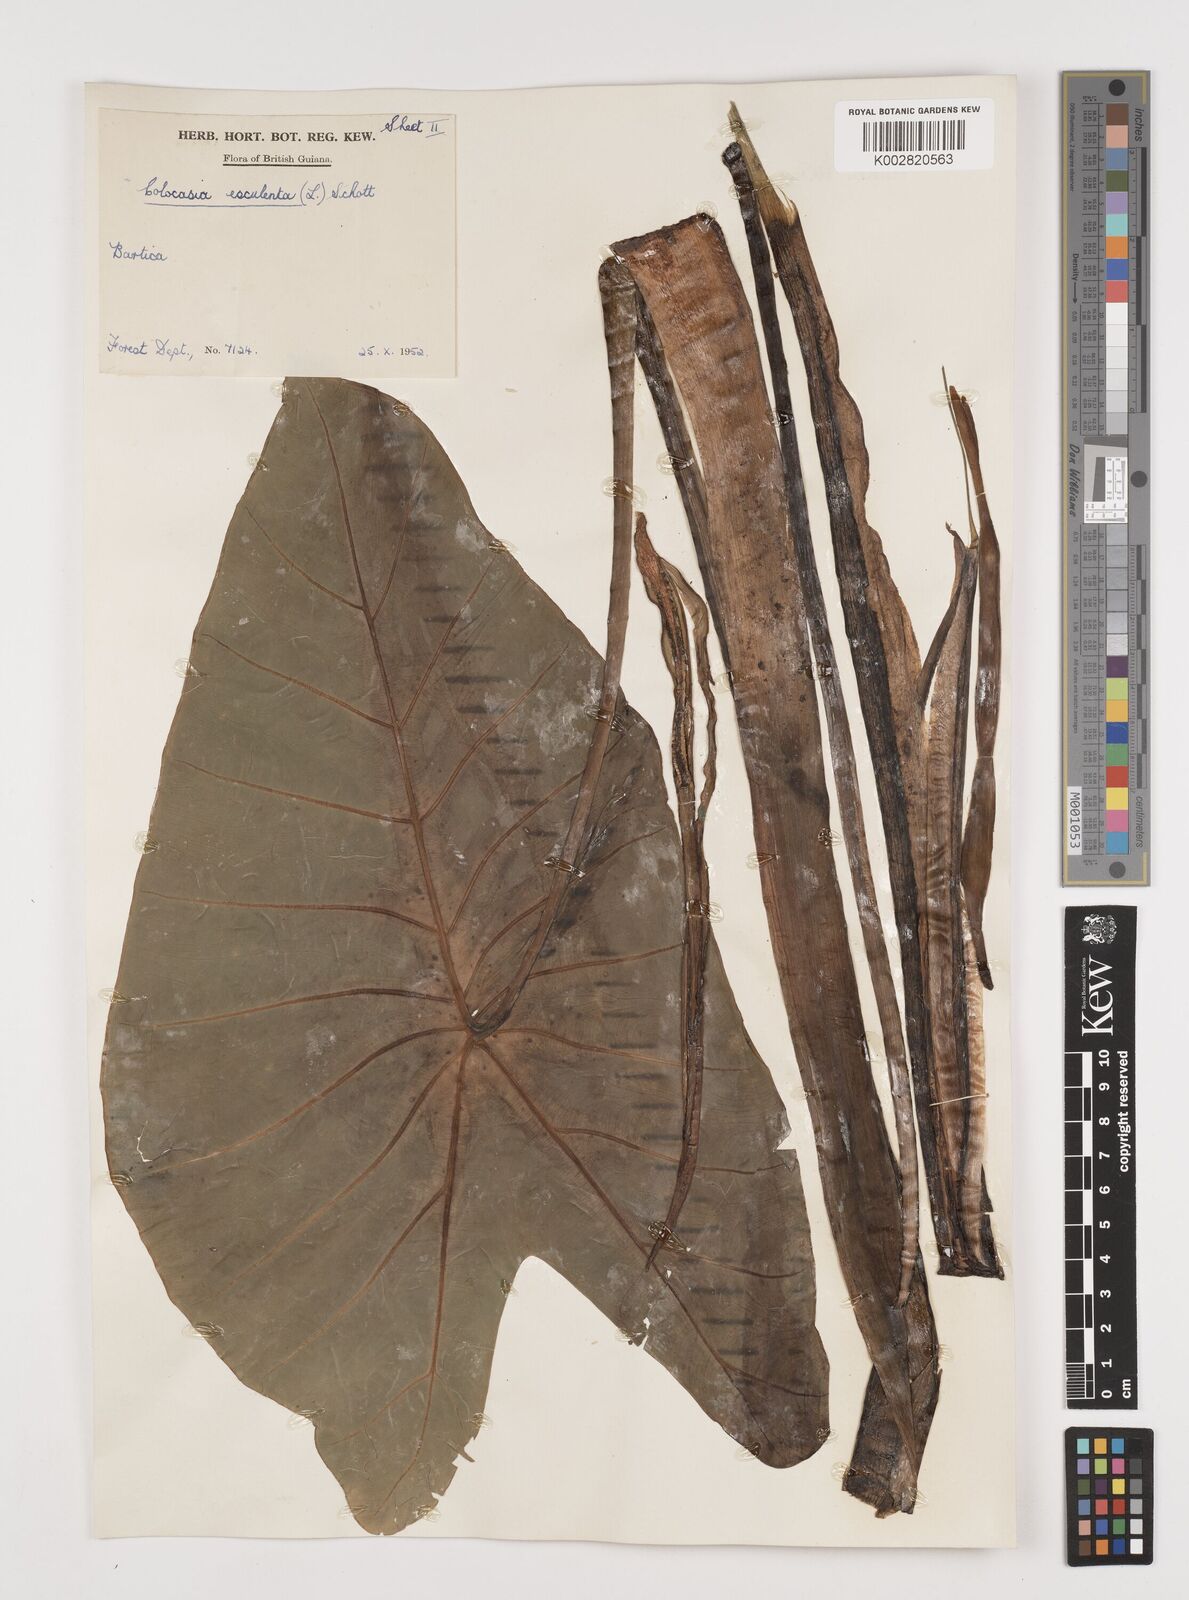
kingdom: Plantae
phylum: Tracheophyta
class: Liliopsida
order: Alismatales
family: Araceae
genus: Colocasia
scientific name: Colocasia esculenta
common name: Taro
